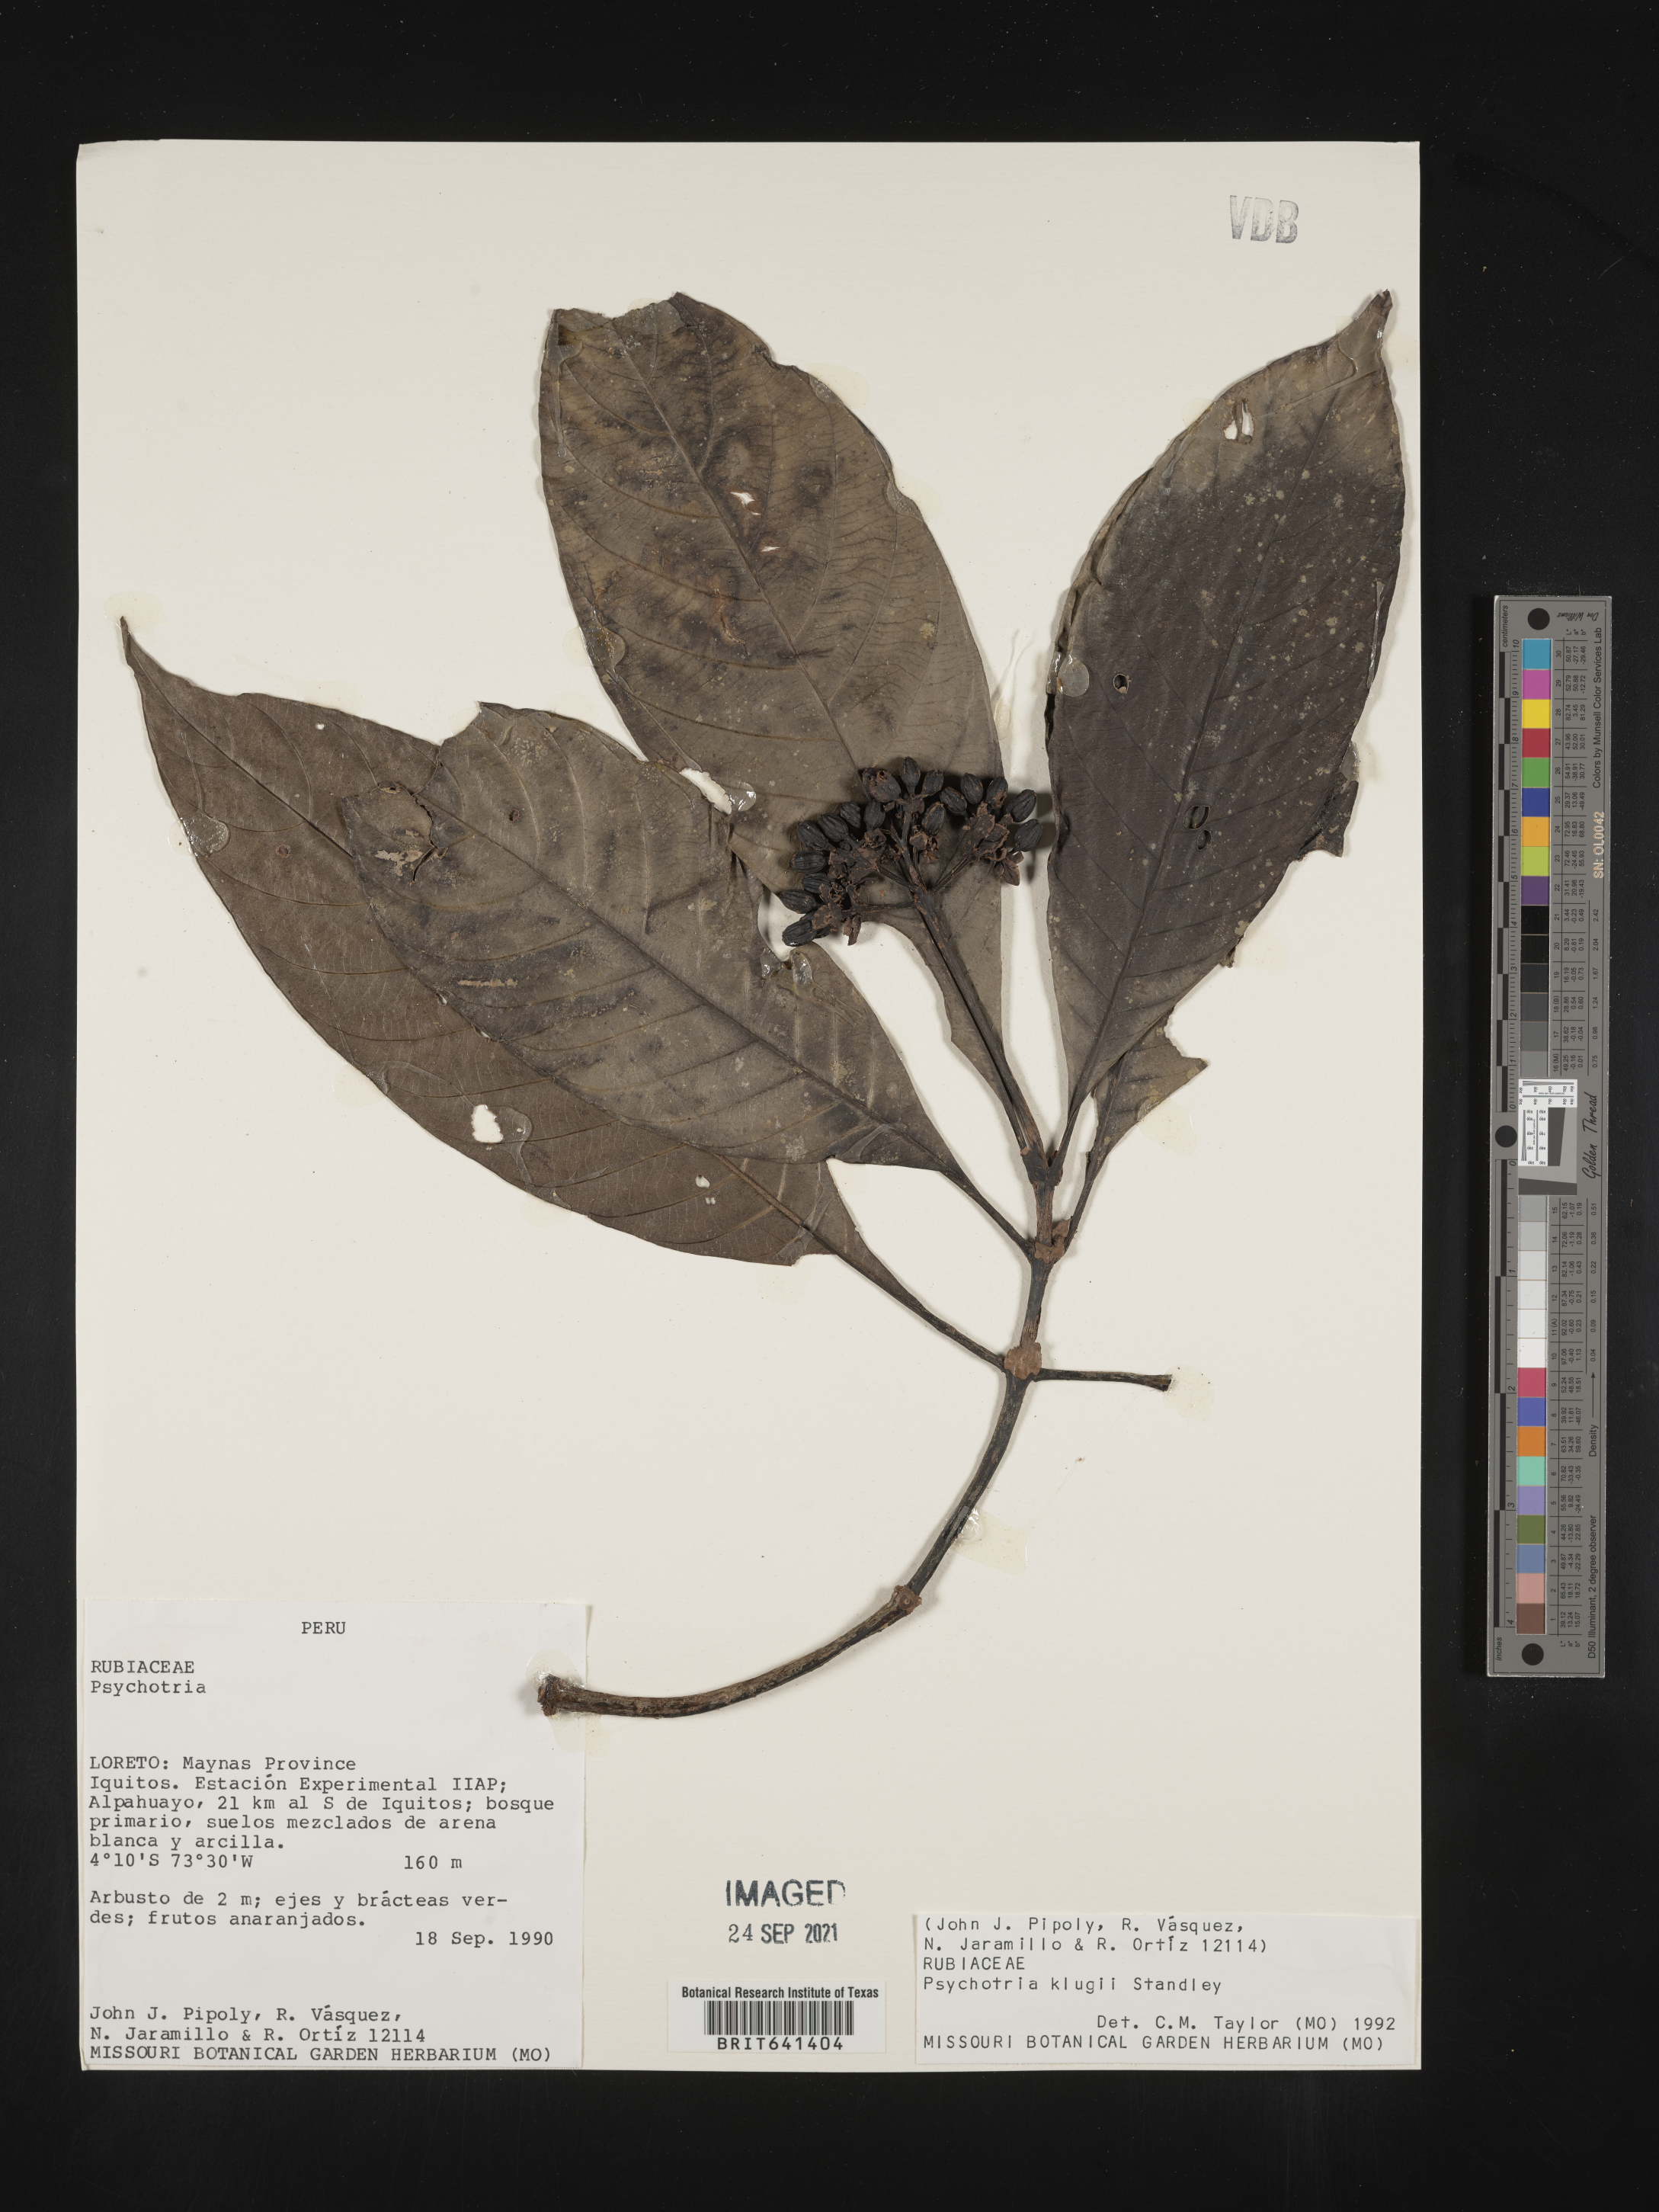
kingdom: Plantae
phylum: Tracheophyta
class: Magnoliopsida
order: Gentianales
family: Rubiaceae
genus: Psychotria
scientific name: Psychotria
